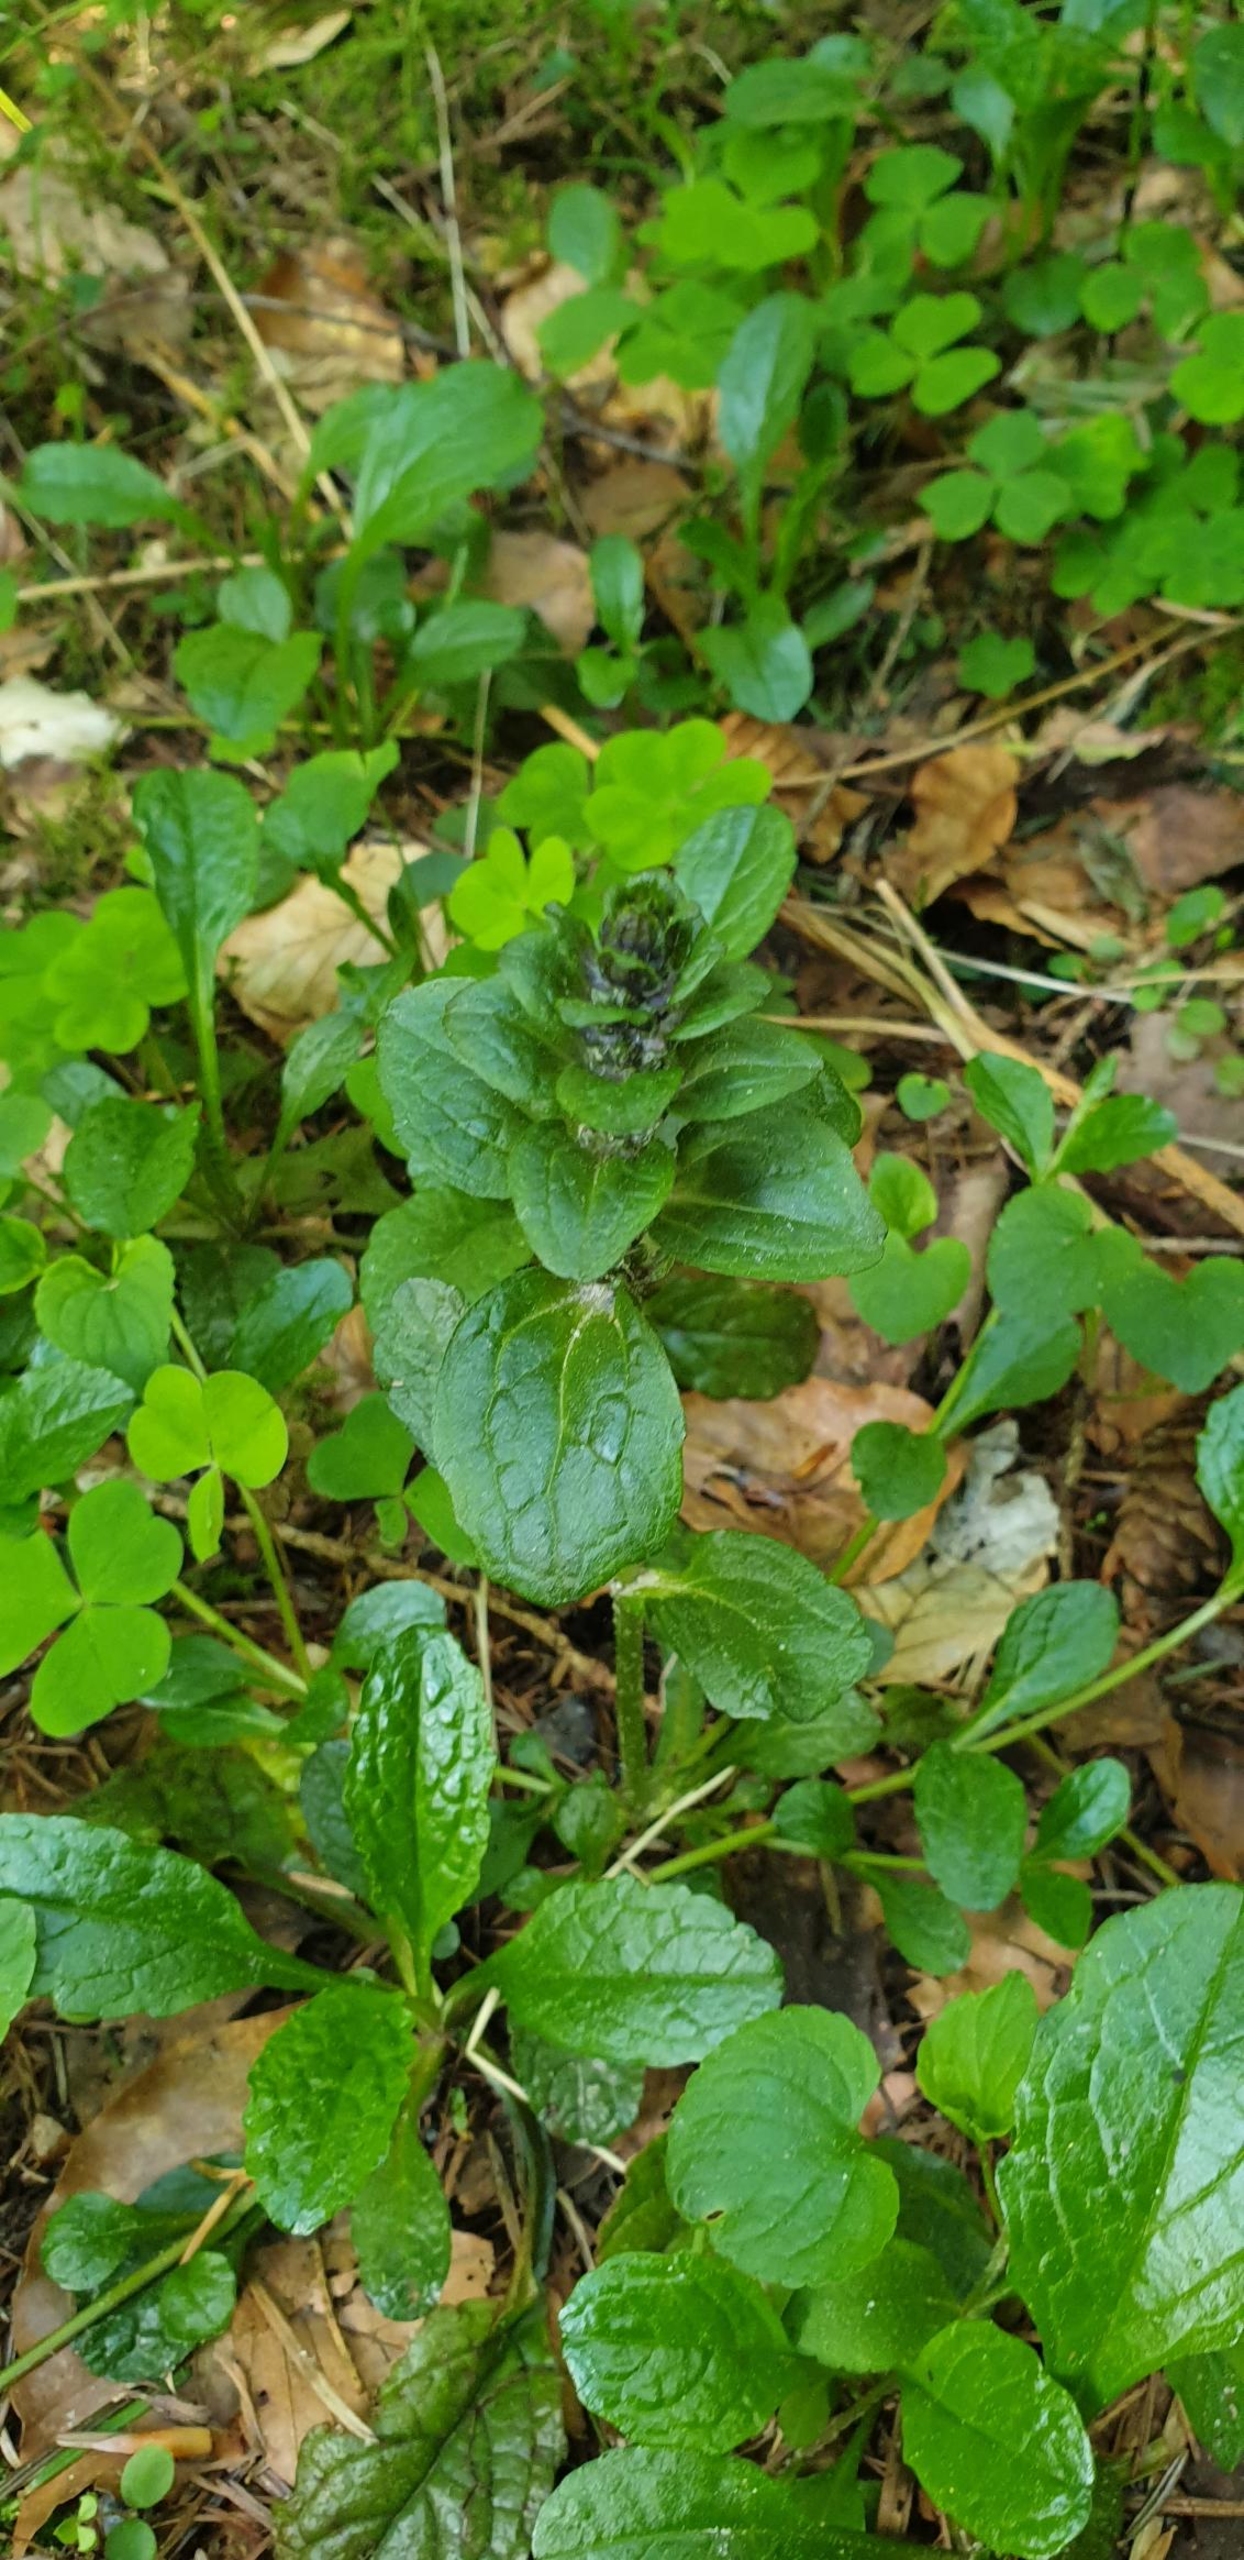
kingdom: Plantae
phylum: Tracheophyta
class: Magnoliopsida
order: Lamiales
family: Lamiaceae
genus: Ajuga
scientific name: Ajuga reptans
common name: Krybende læbeløs
